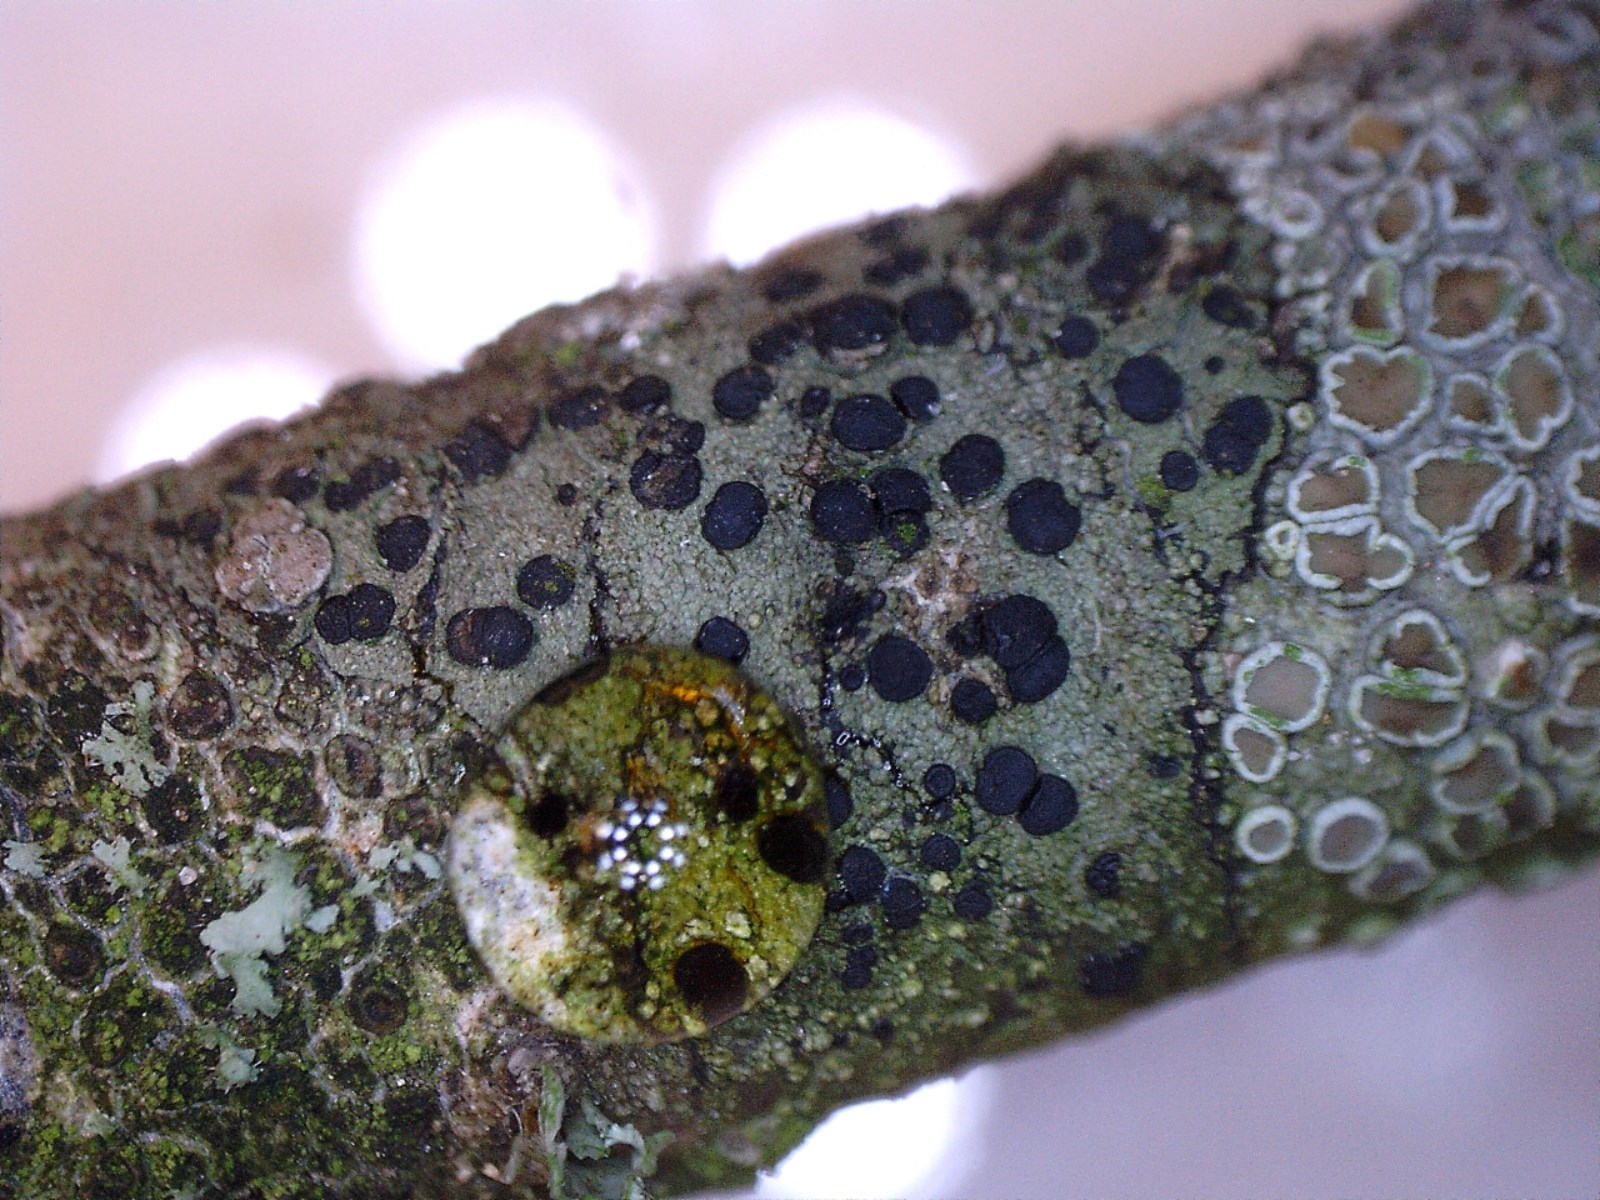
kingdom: Fungi
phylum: Ascomycota
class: Lecanoromycetes
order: Lecanorales
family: Lecanoraceae
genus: Lecidella
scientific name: Lecidella elaeochroma
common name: grågrøn skivelav
